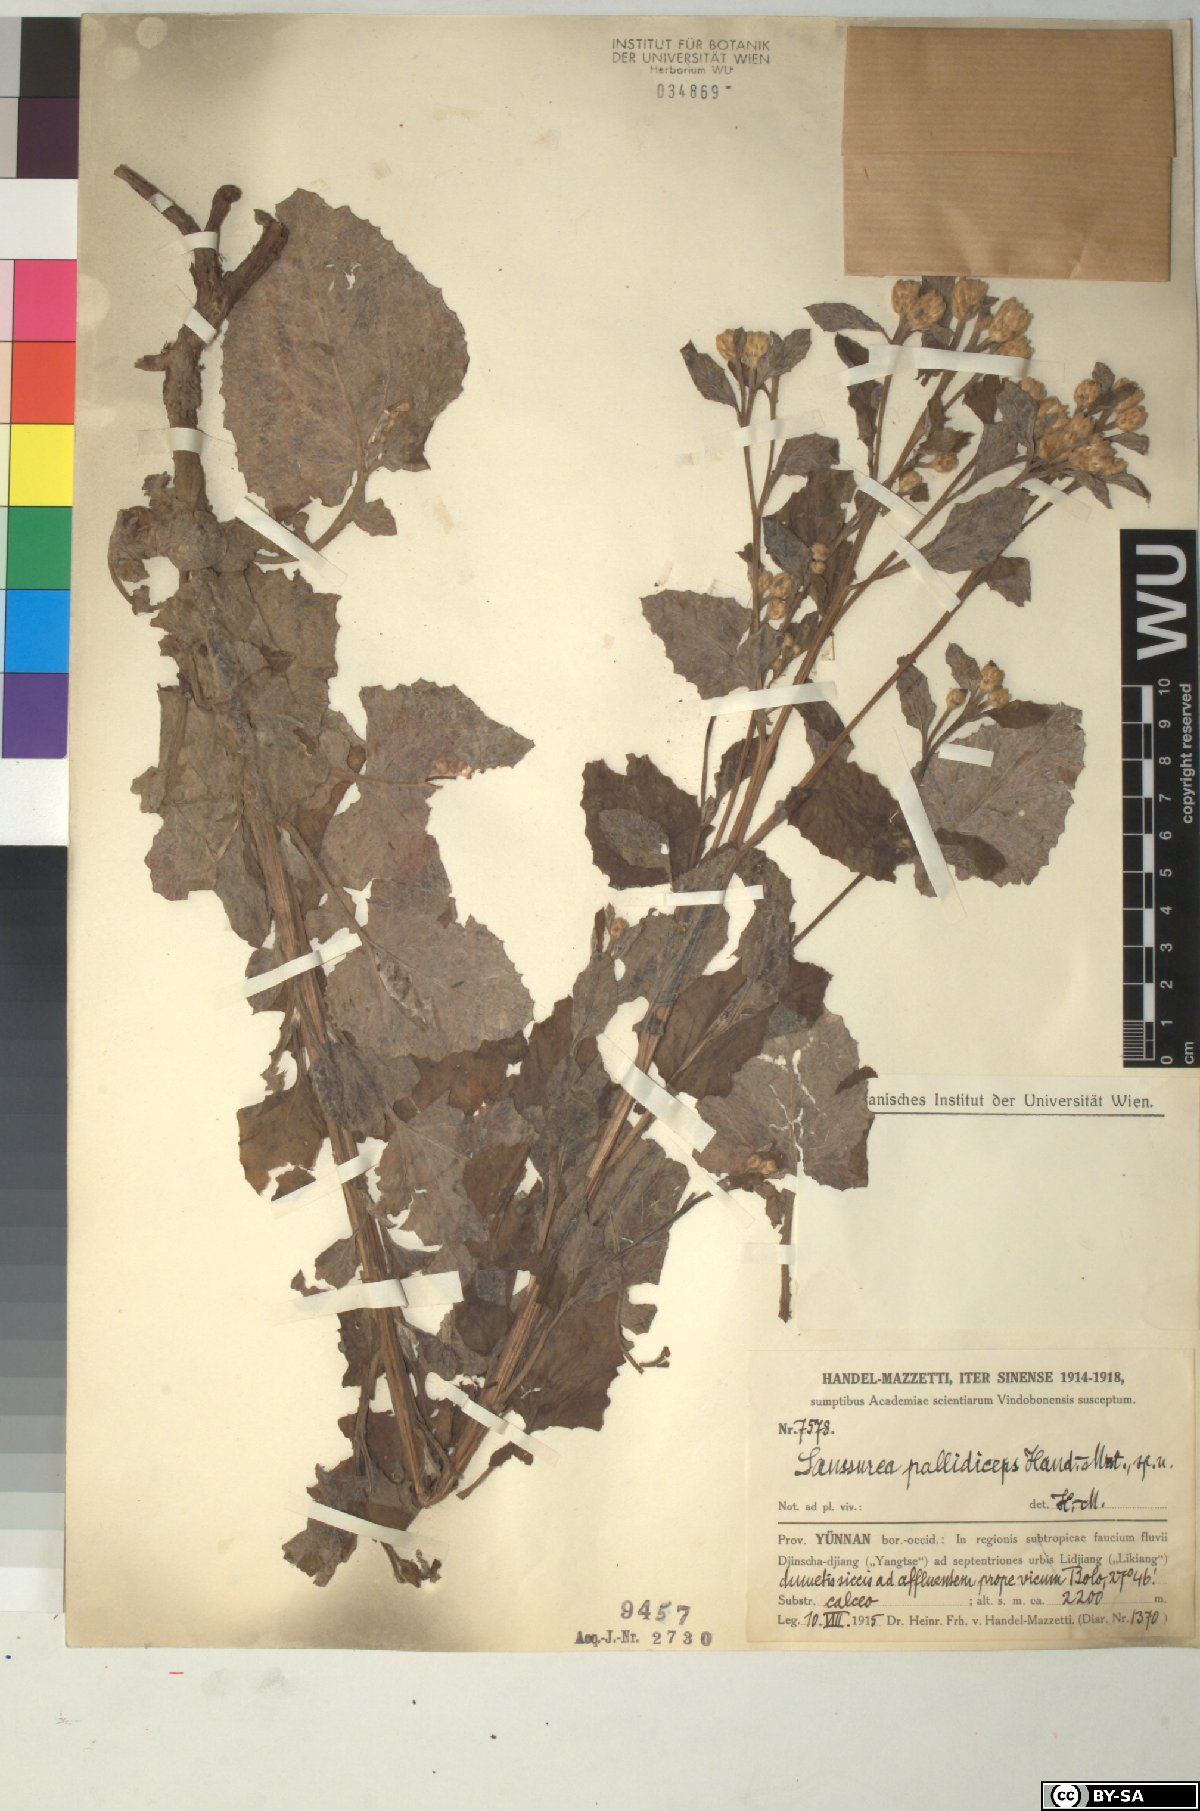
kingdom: Plantae
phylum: Tracheophyta
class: Magnoliopsida
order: Asterales
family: Asteraceae
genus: Saussurea
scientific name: Saussurea eriocephala
